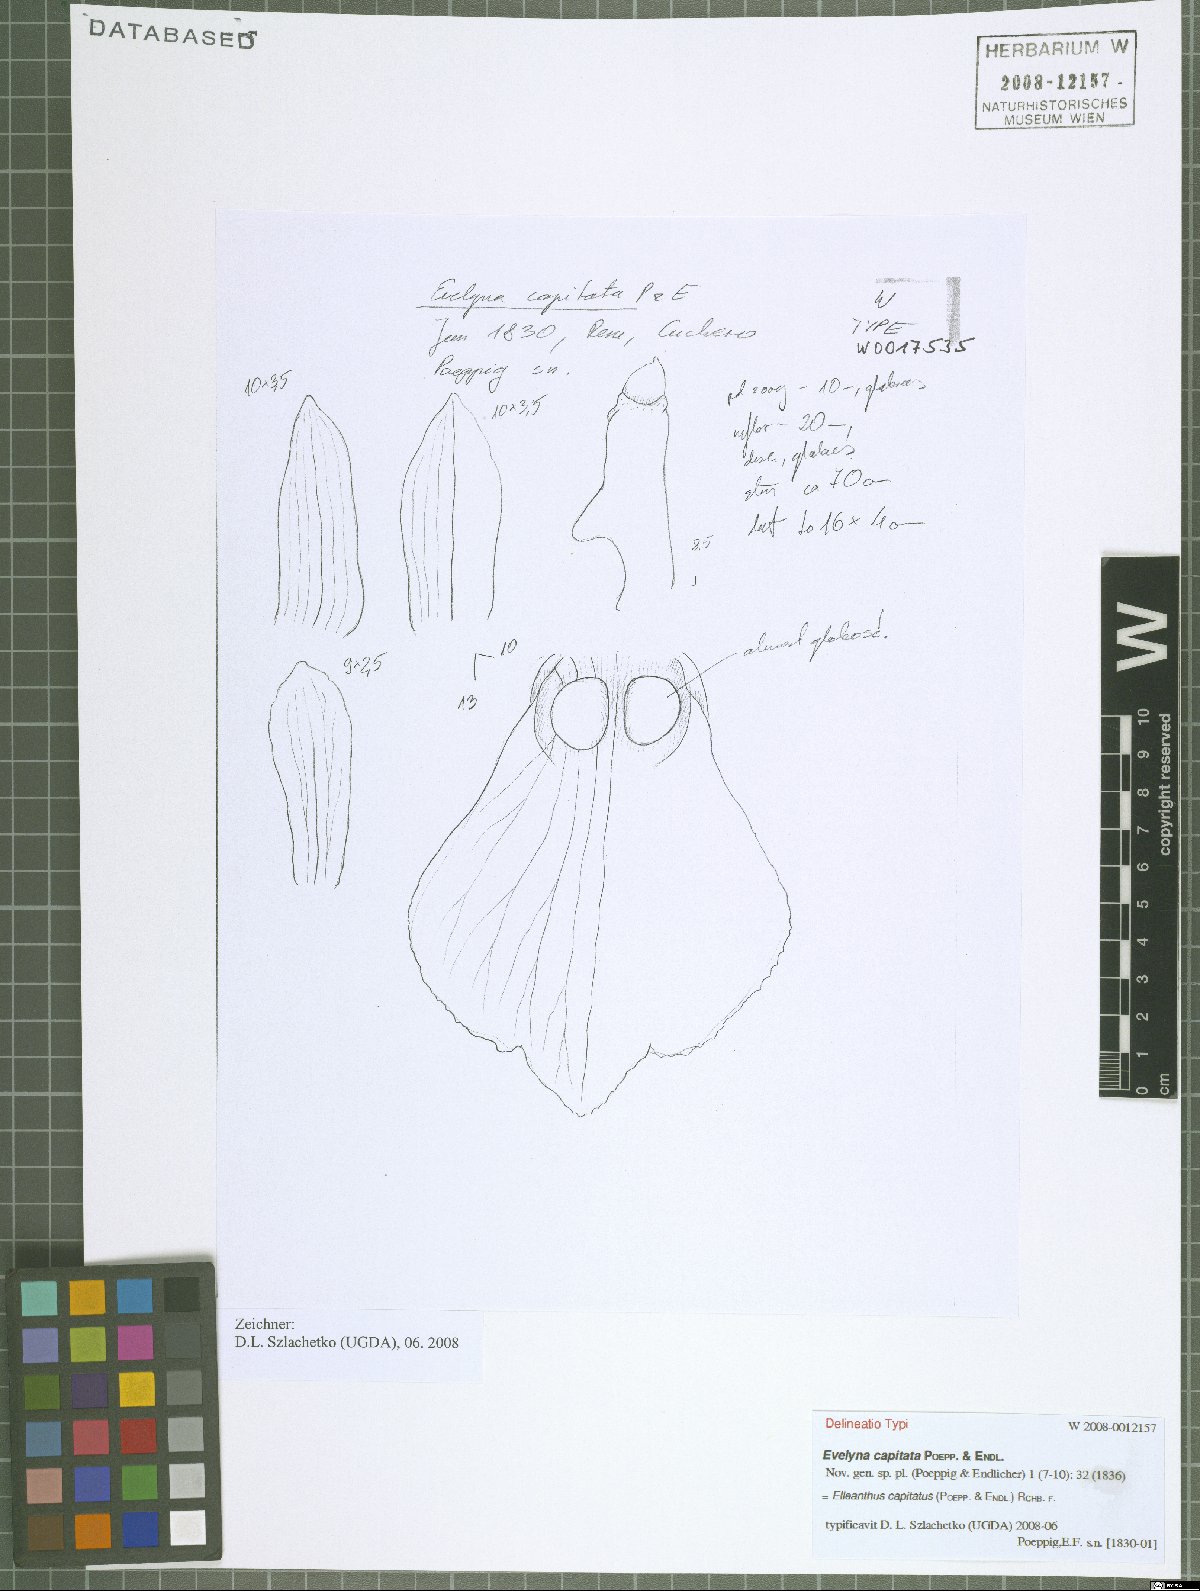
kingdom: Plantae
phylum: Tracheophyta
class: Liliopsida
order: Asparagales
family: Orchidaceae
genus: Elleanthus
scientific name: Elleanthus capitatus
